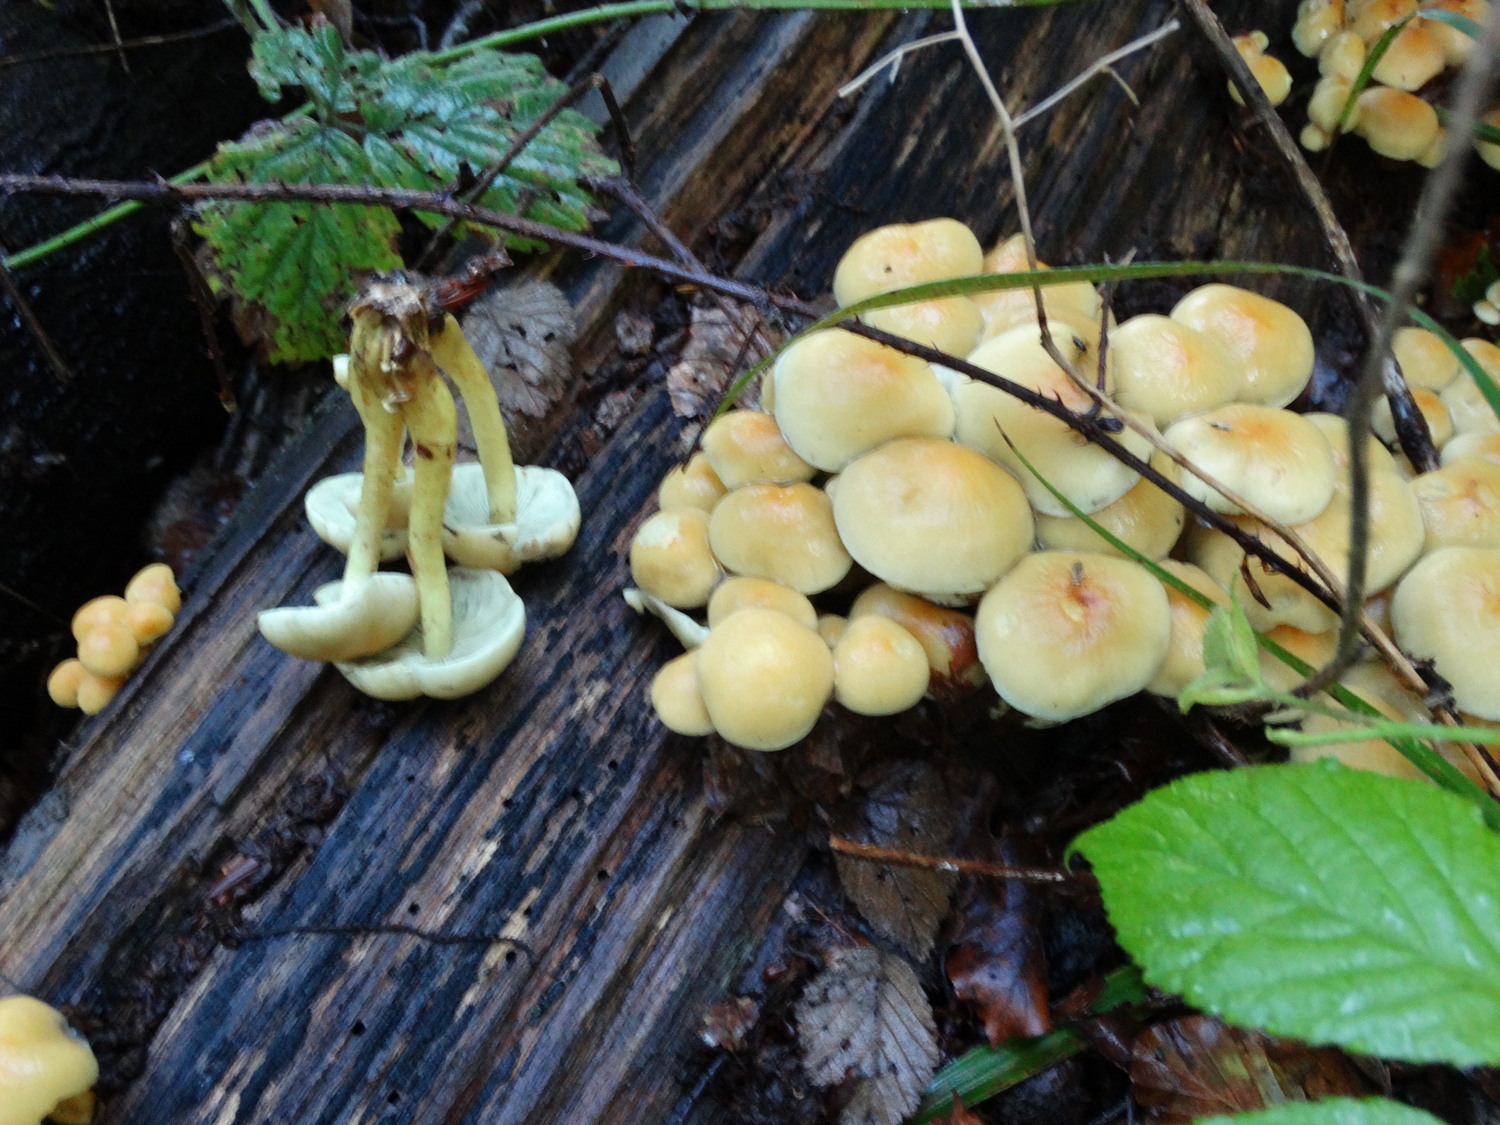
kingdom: Fungi
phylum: Basidiomycota
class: Agaricomycetes
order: Agaricales
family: Strophariaceae
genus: Hypholoma
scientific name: Hypholoma fasciculare
